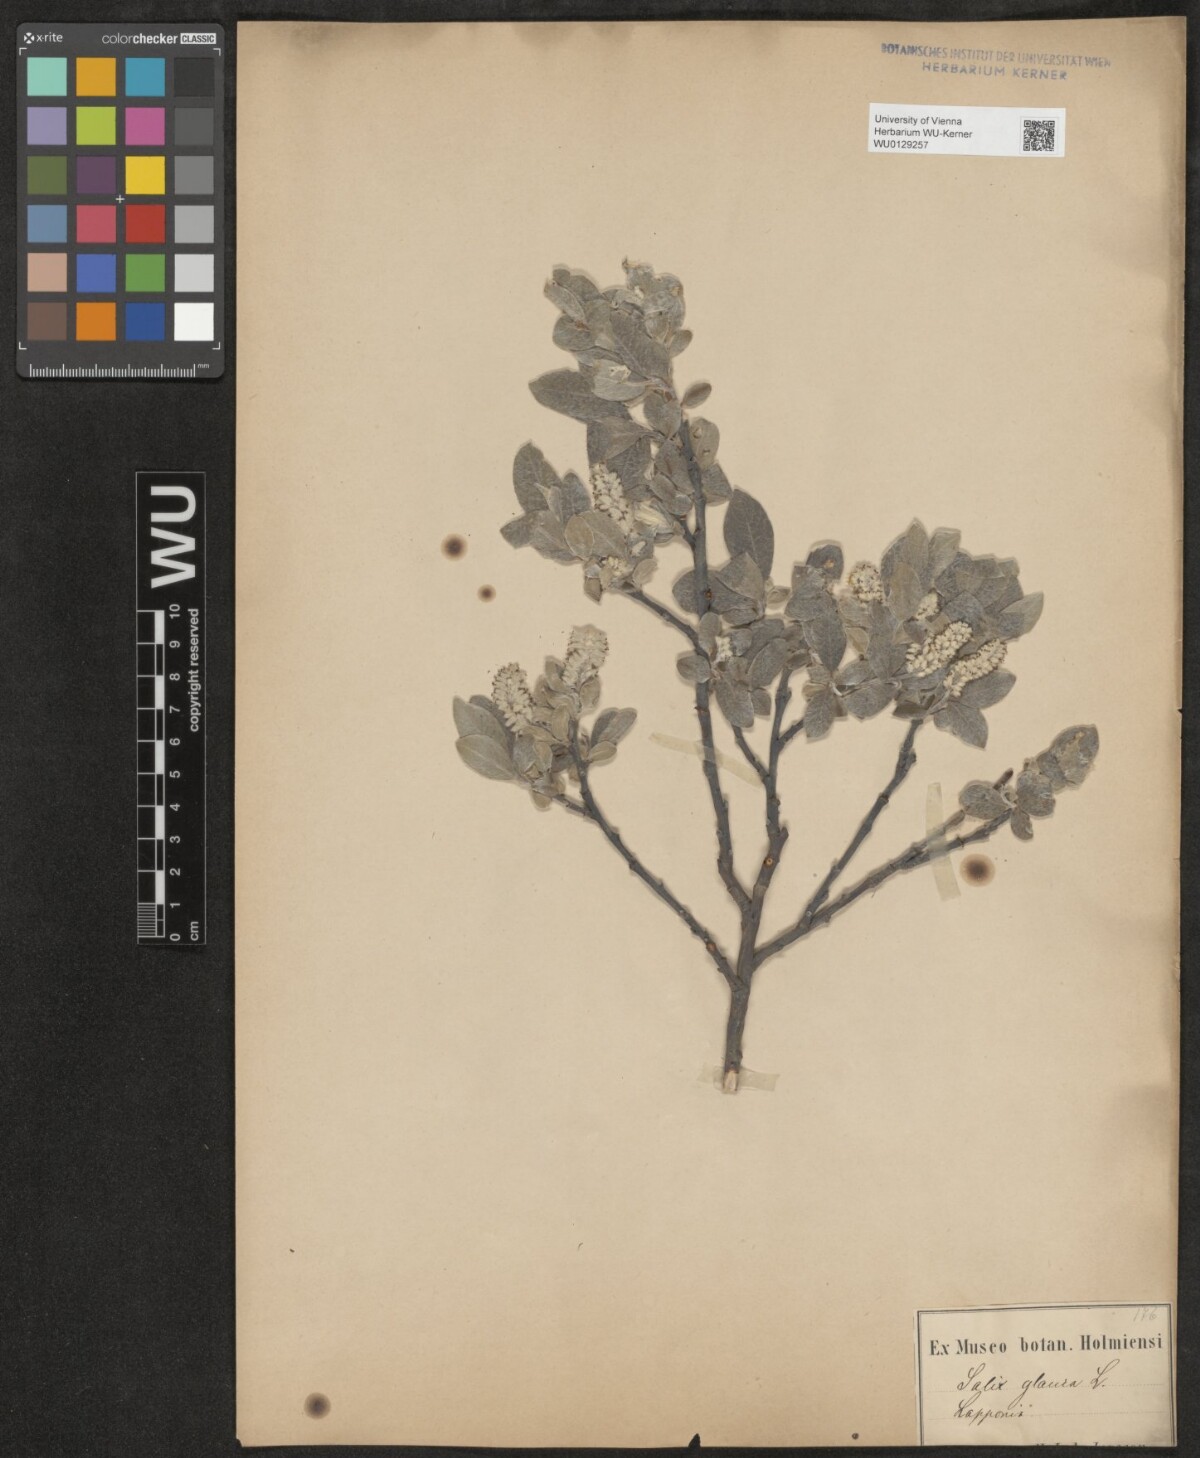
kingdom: Plantae
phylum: Tracheophyta
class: Magnoliopsida
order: Malpighiales
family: Salicaceae
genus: Salix
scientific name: Salix glauca
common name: Glaucous willow
